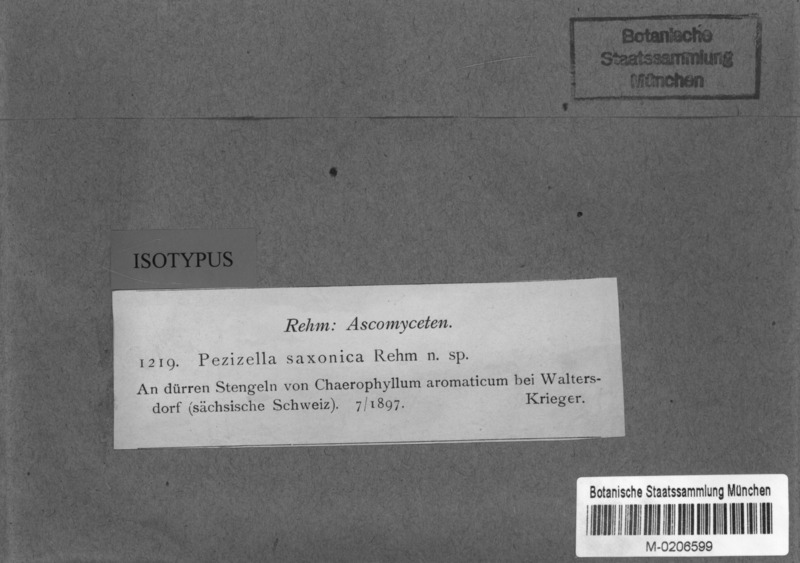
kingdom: Fungi
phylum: Ascomycota
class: Leotiomycetes
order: Helotiales
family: Hyaloscyphaceae
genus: Urceolella
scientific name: Urceolella saxonica
